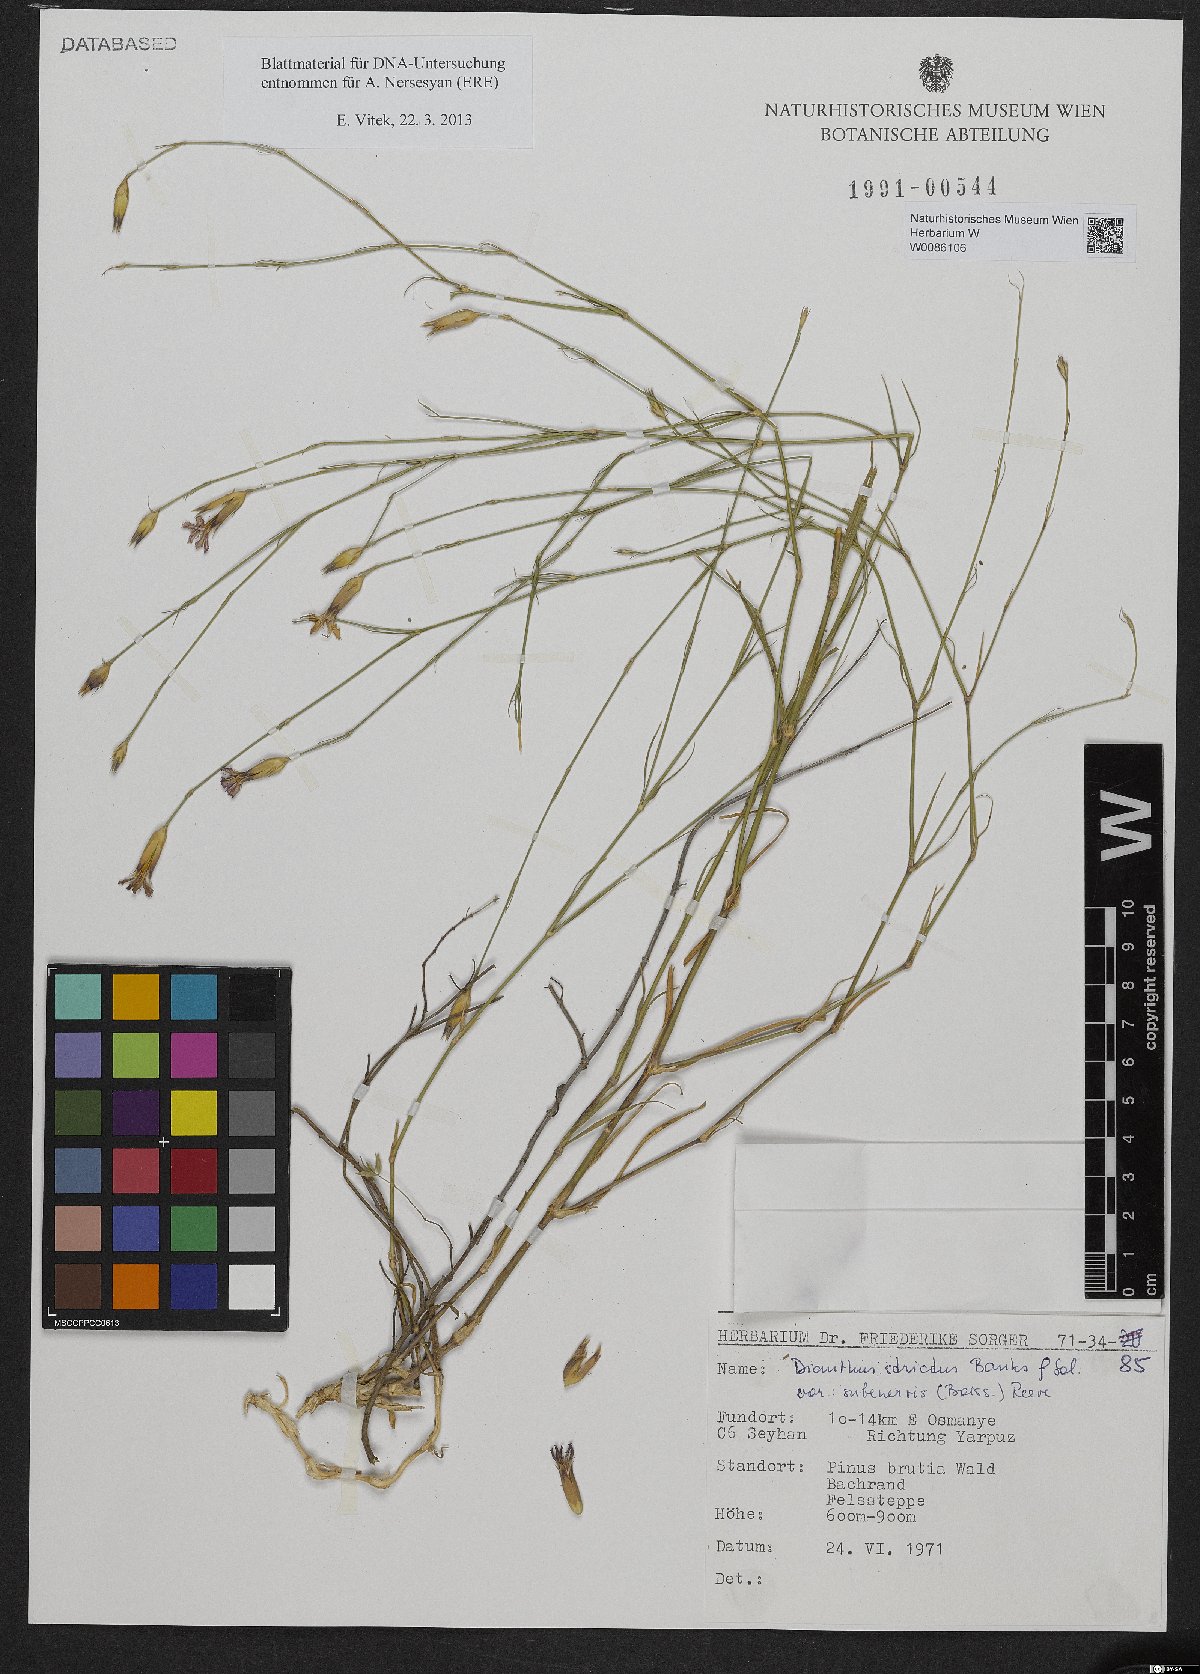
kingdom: Plantae
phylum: Tracheophyta
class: Magnoliopsida
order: Caryophyllales
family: Caryophyllaceae
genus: Dianthus
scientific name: Dianthus strictus
